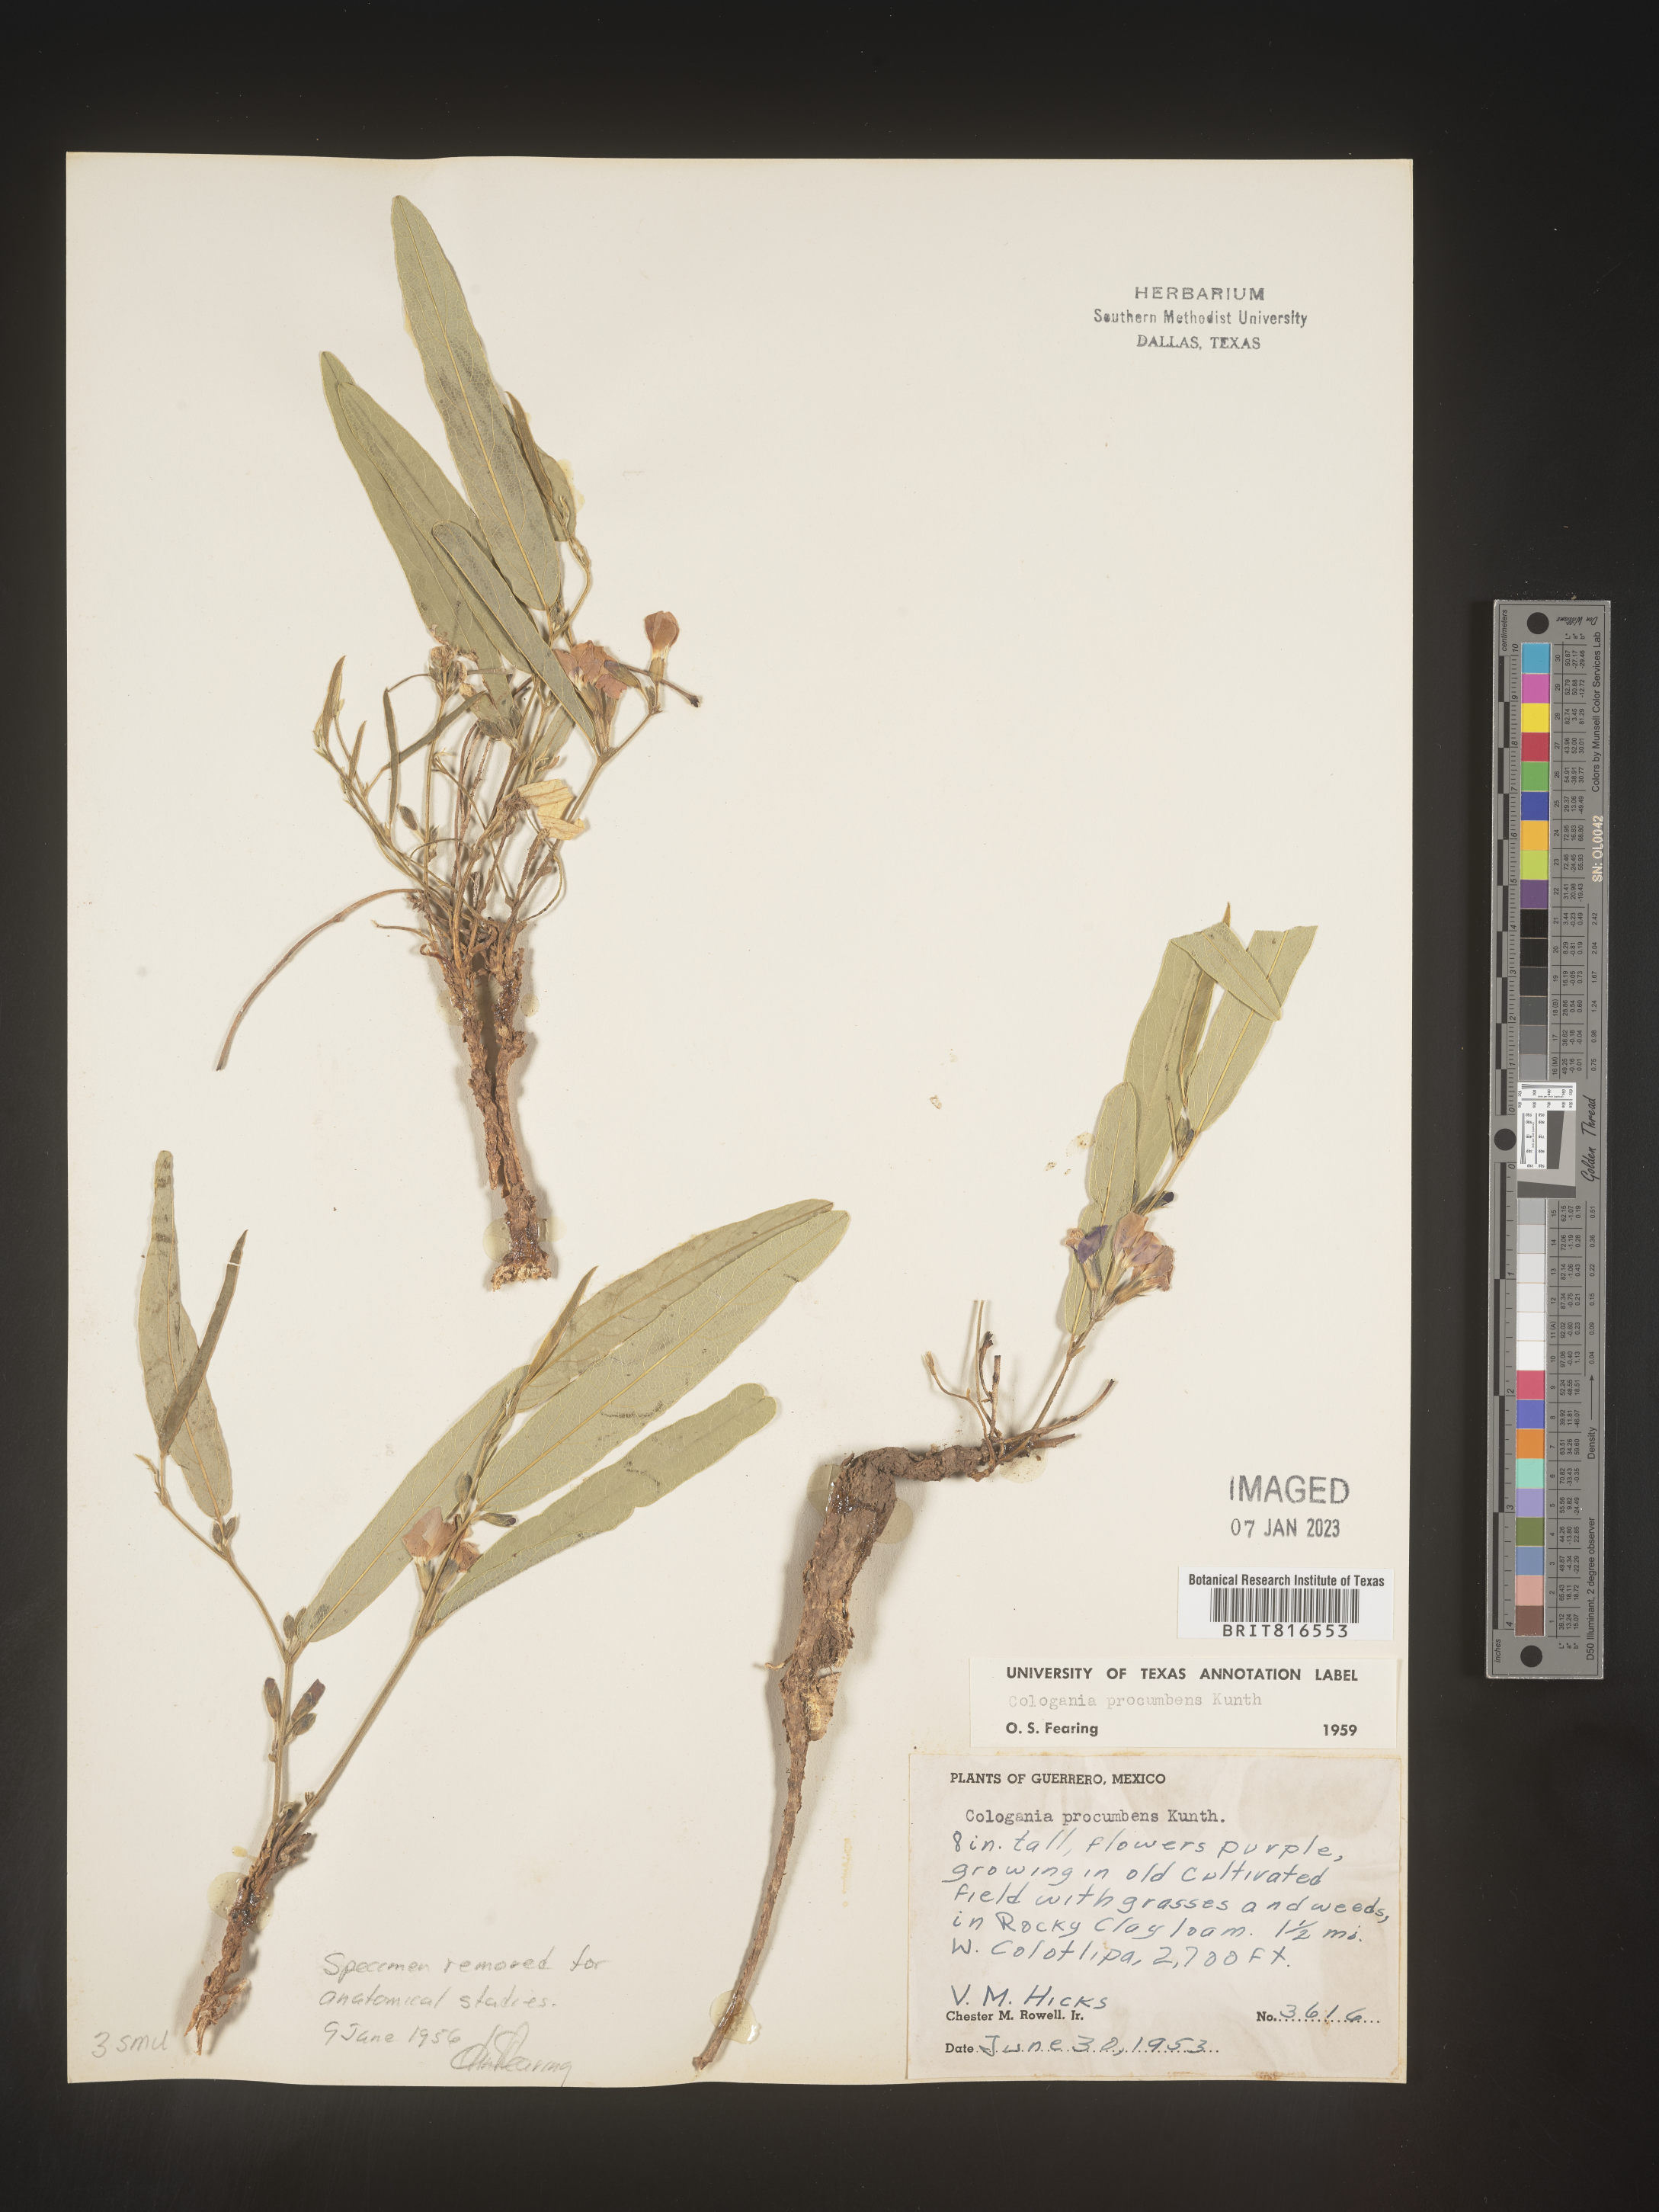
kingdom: Plantae
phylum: Tracheophyta
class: Magnoliopsida
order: Fabales
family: Fabaceae
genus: Cologania
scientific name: Cologania procumbens
